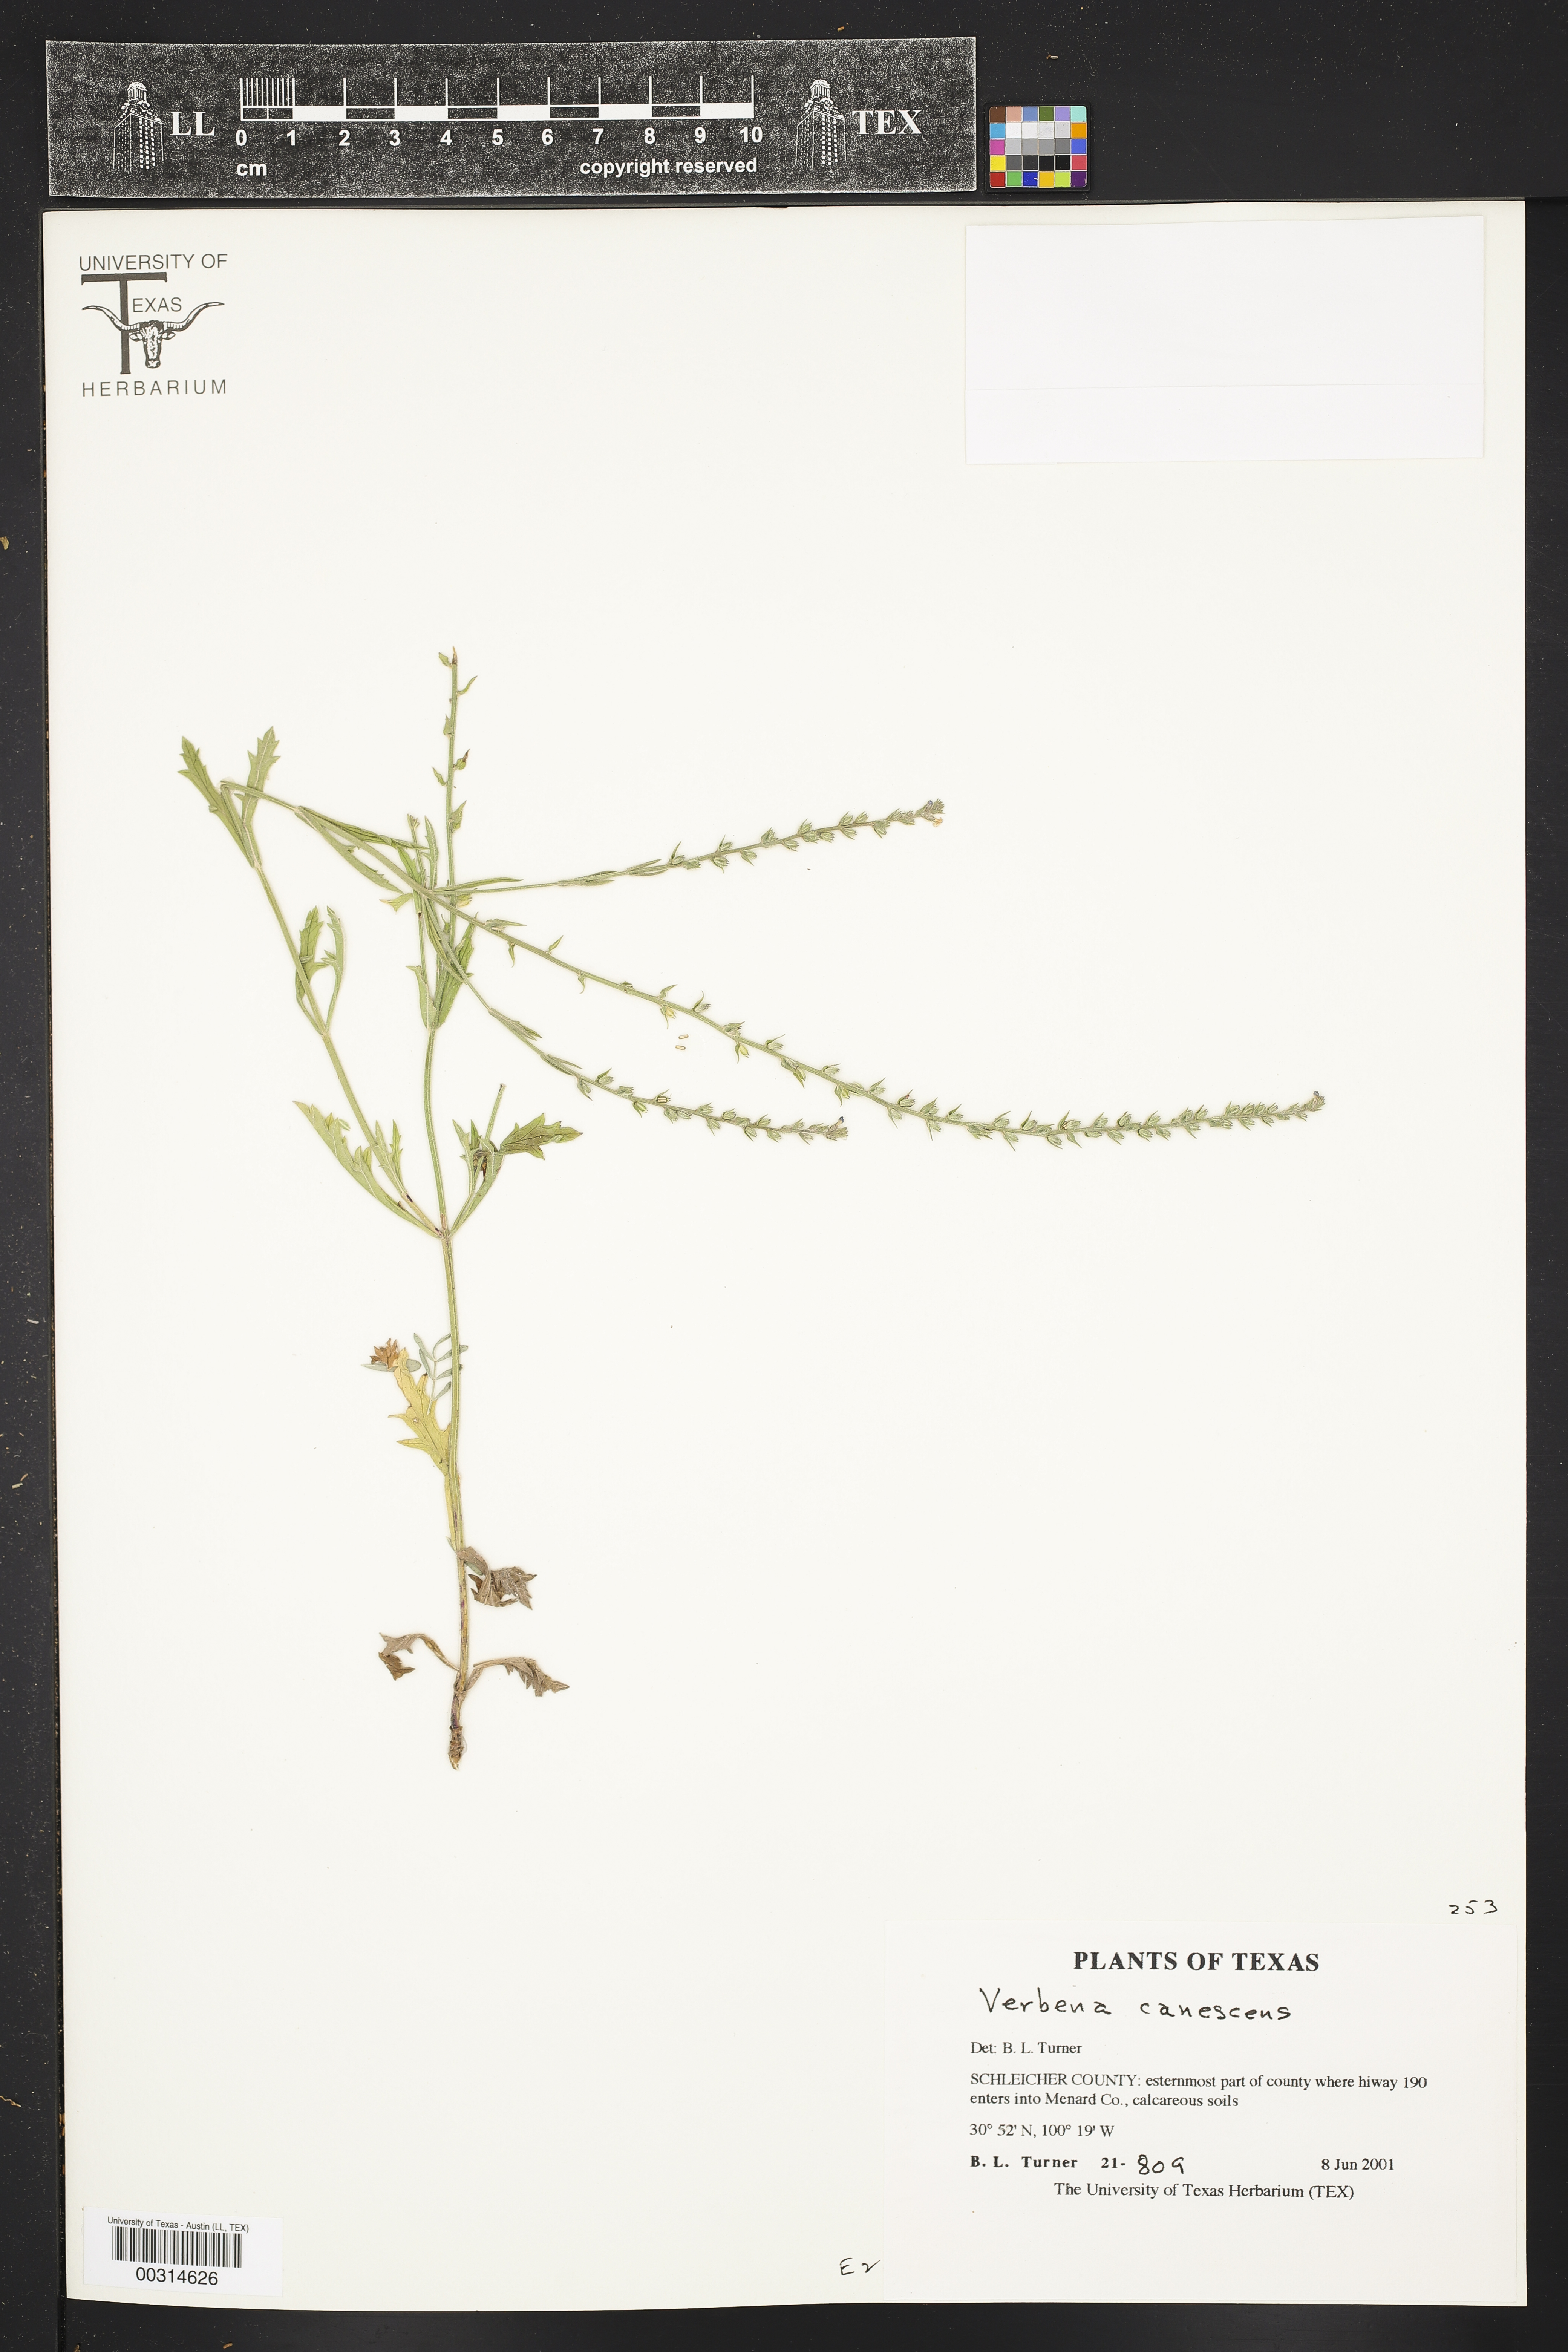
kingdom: Plantae
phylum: Tracheophyta
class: Magnoliopsida
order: Lamiales
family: Verbenaceae
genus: Verbena
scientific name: Verbena canescens
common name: Gray vervain
